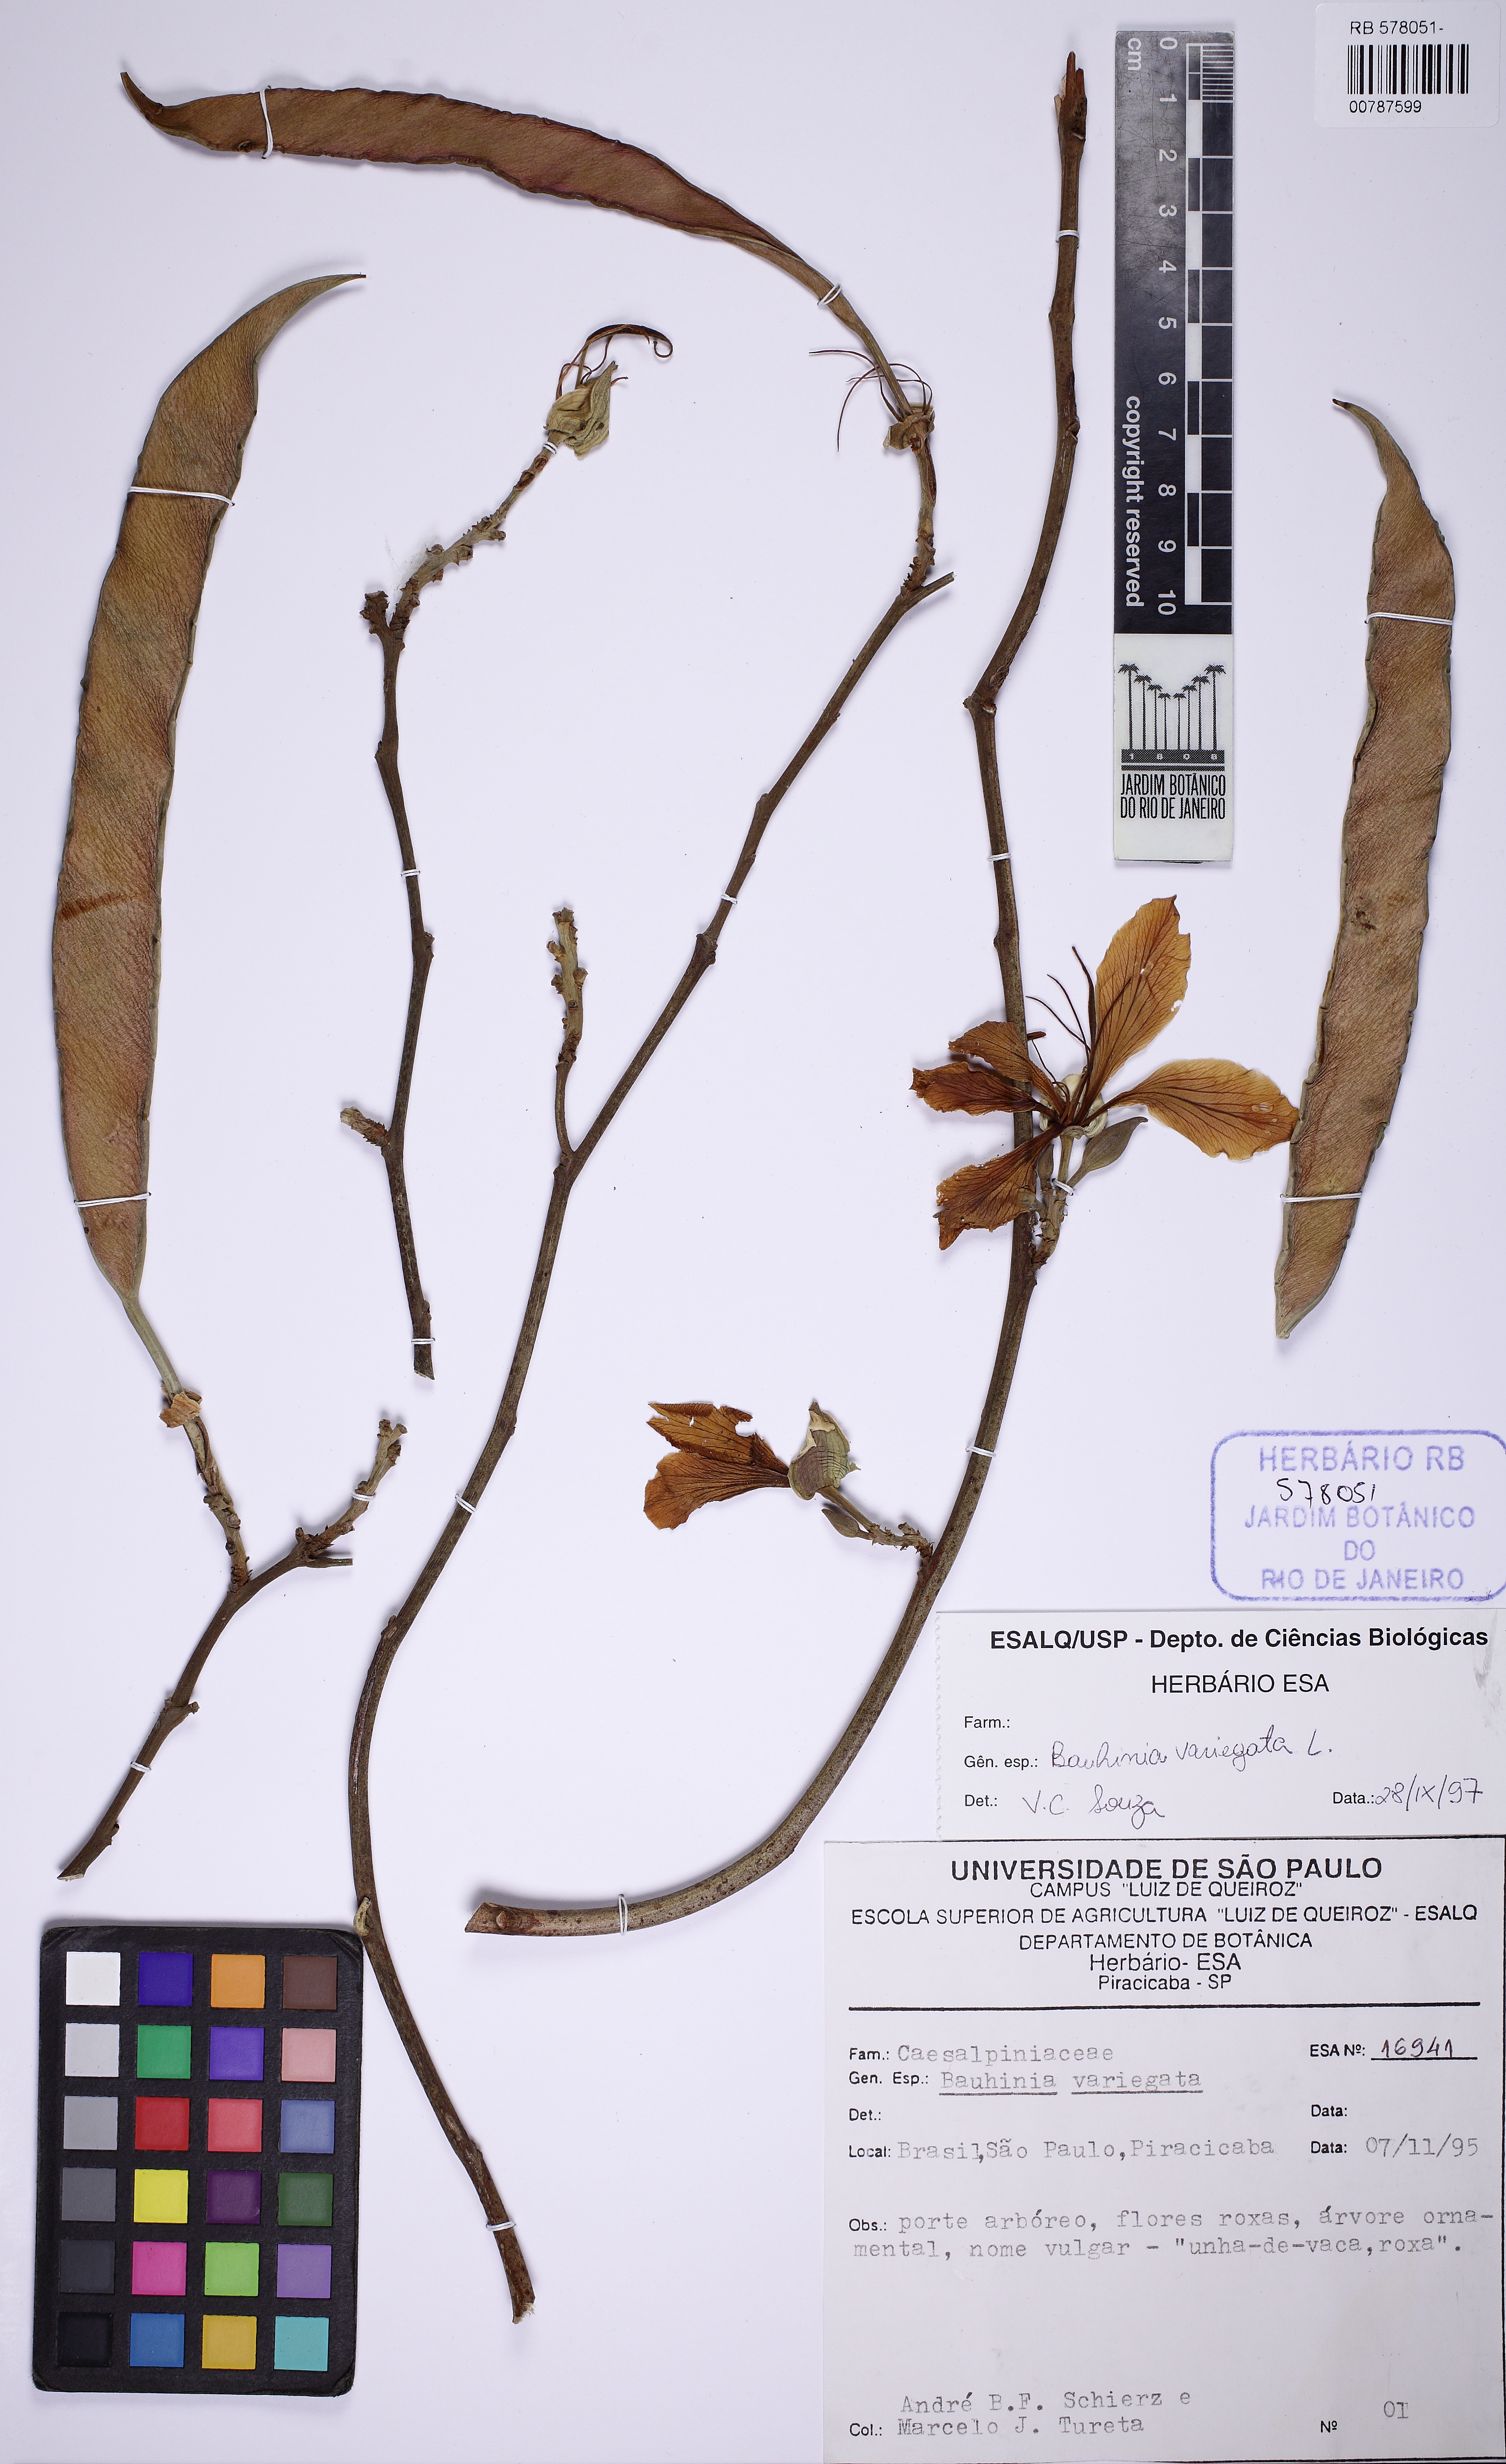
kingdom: Plantae
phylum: Tracheophyta
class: Magnoliopsida
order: Fabales
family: Fabaceae
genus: Bauhinia
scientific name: Bauhinia variegata
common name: Mountain ebony
